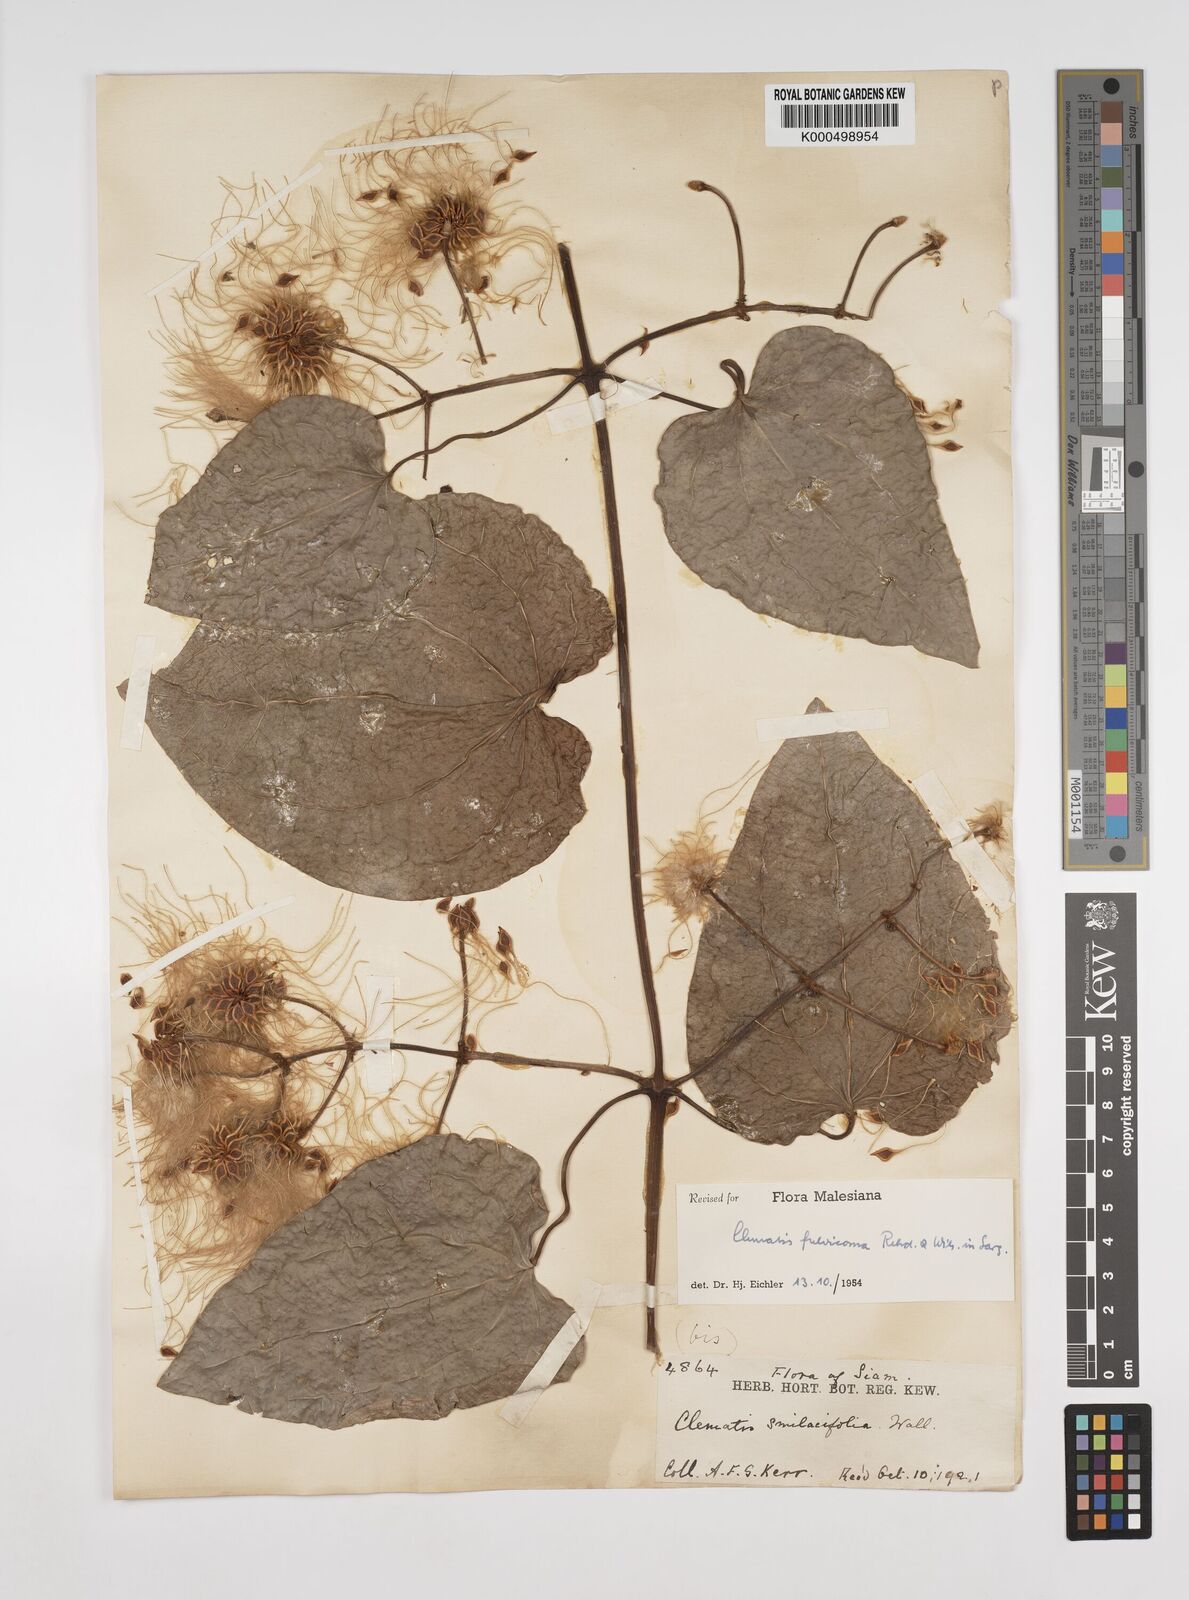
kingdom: Plantae
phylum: Tracheophyta
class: Magnoliopsida
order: Ranunculales
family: Ranunculaceae
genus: Clematis
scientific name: Clematis fulvicoma
